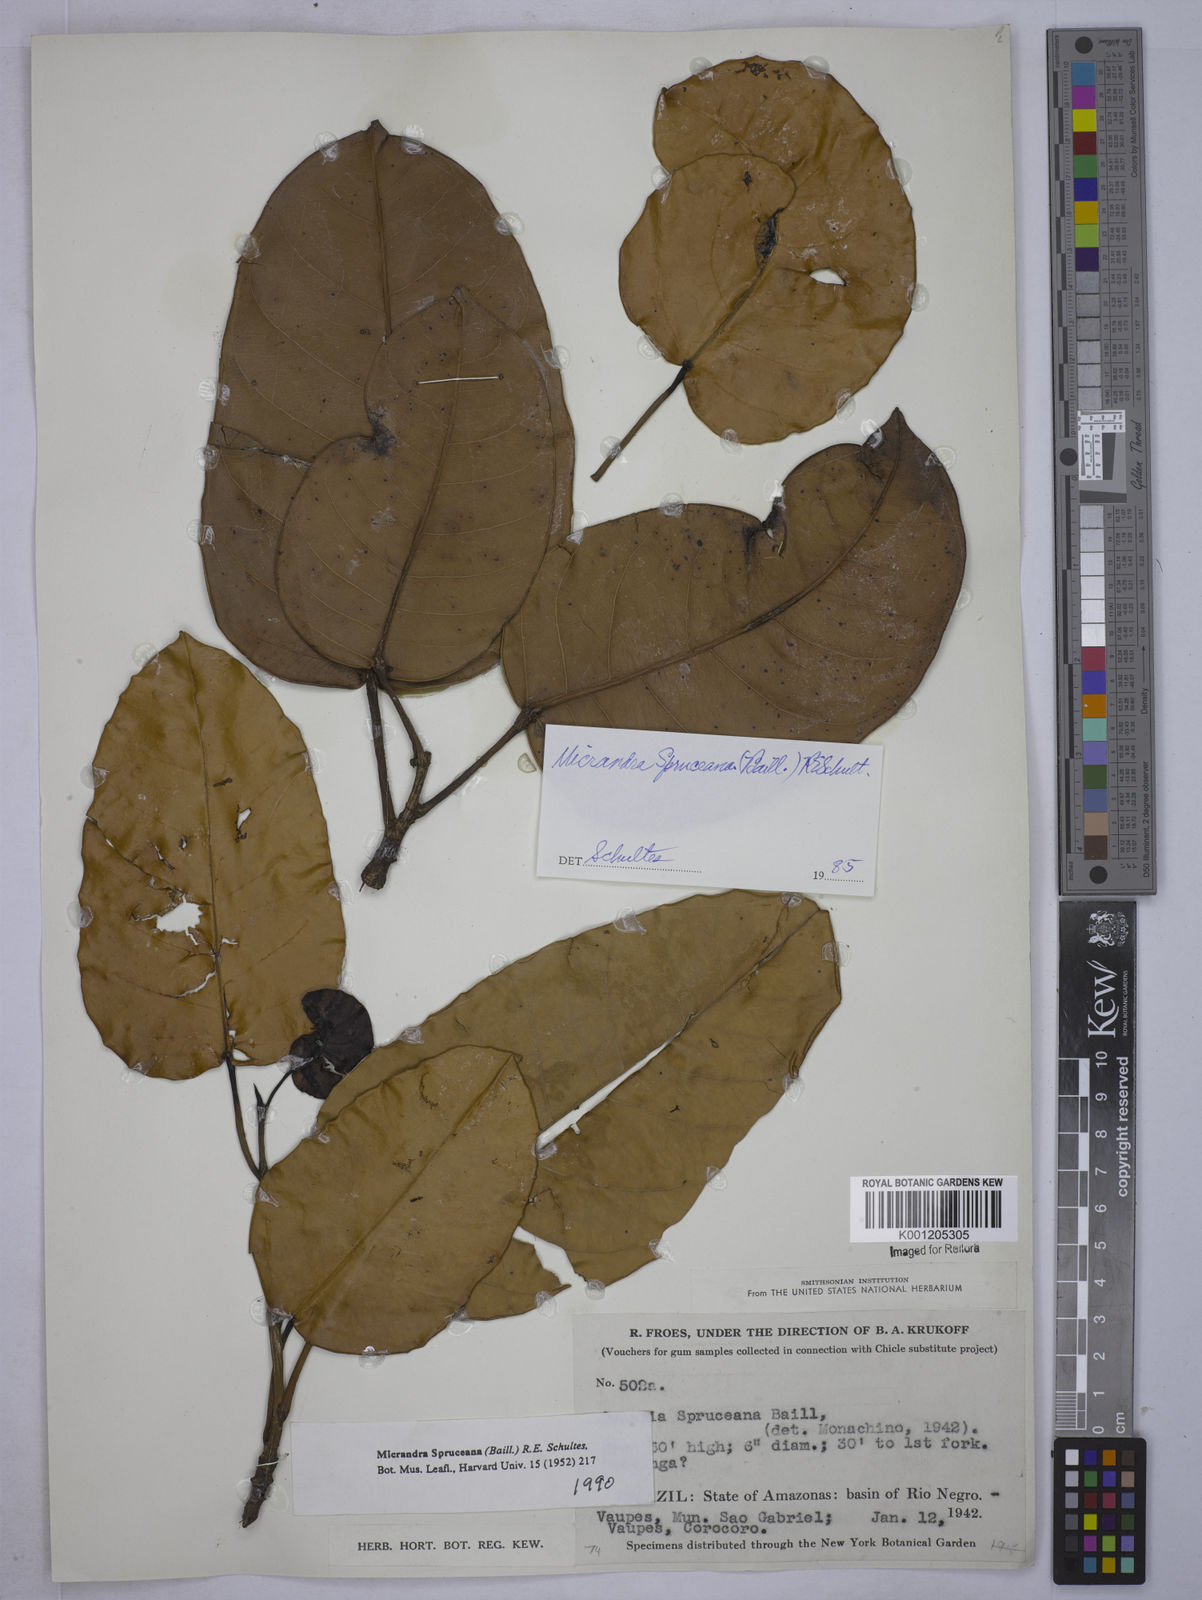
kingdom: Plantae
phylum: Tracheophyta
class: Magnoliopsida
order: Malpighiales
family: Euphorbiaceae
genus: Micrandra
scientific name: Micrandra spruceana
